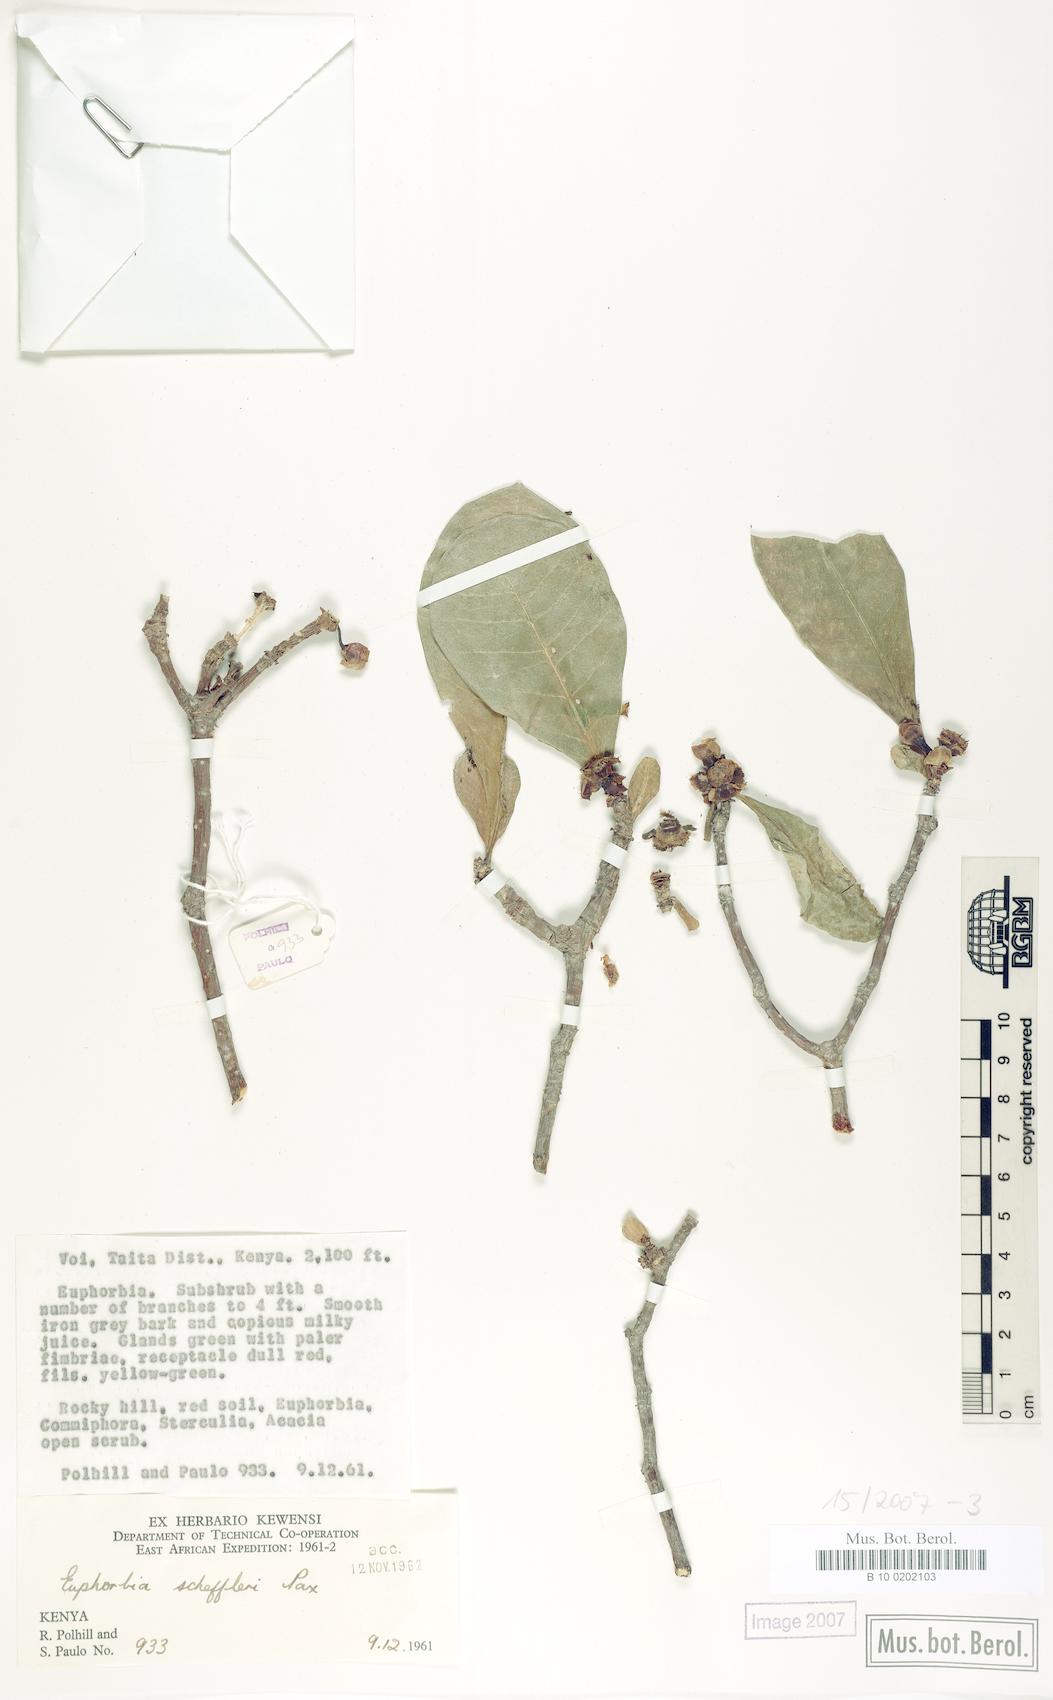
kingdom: Plantae
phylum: Tracheophyta
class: Magnoliopsida
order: Malpighiales
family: Euphorbiaceae
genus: Euphorbia
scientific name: Euphorbia scheffleri
